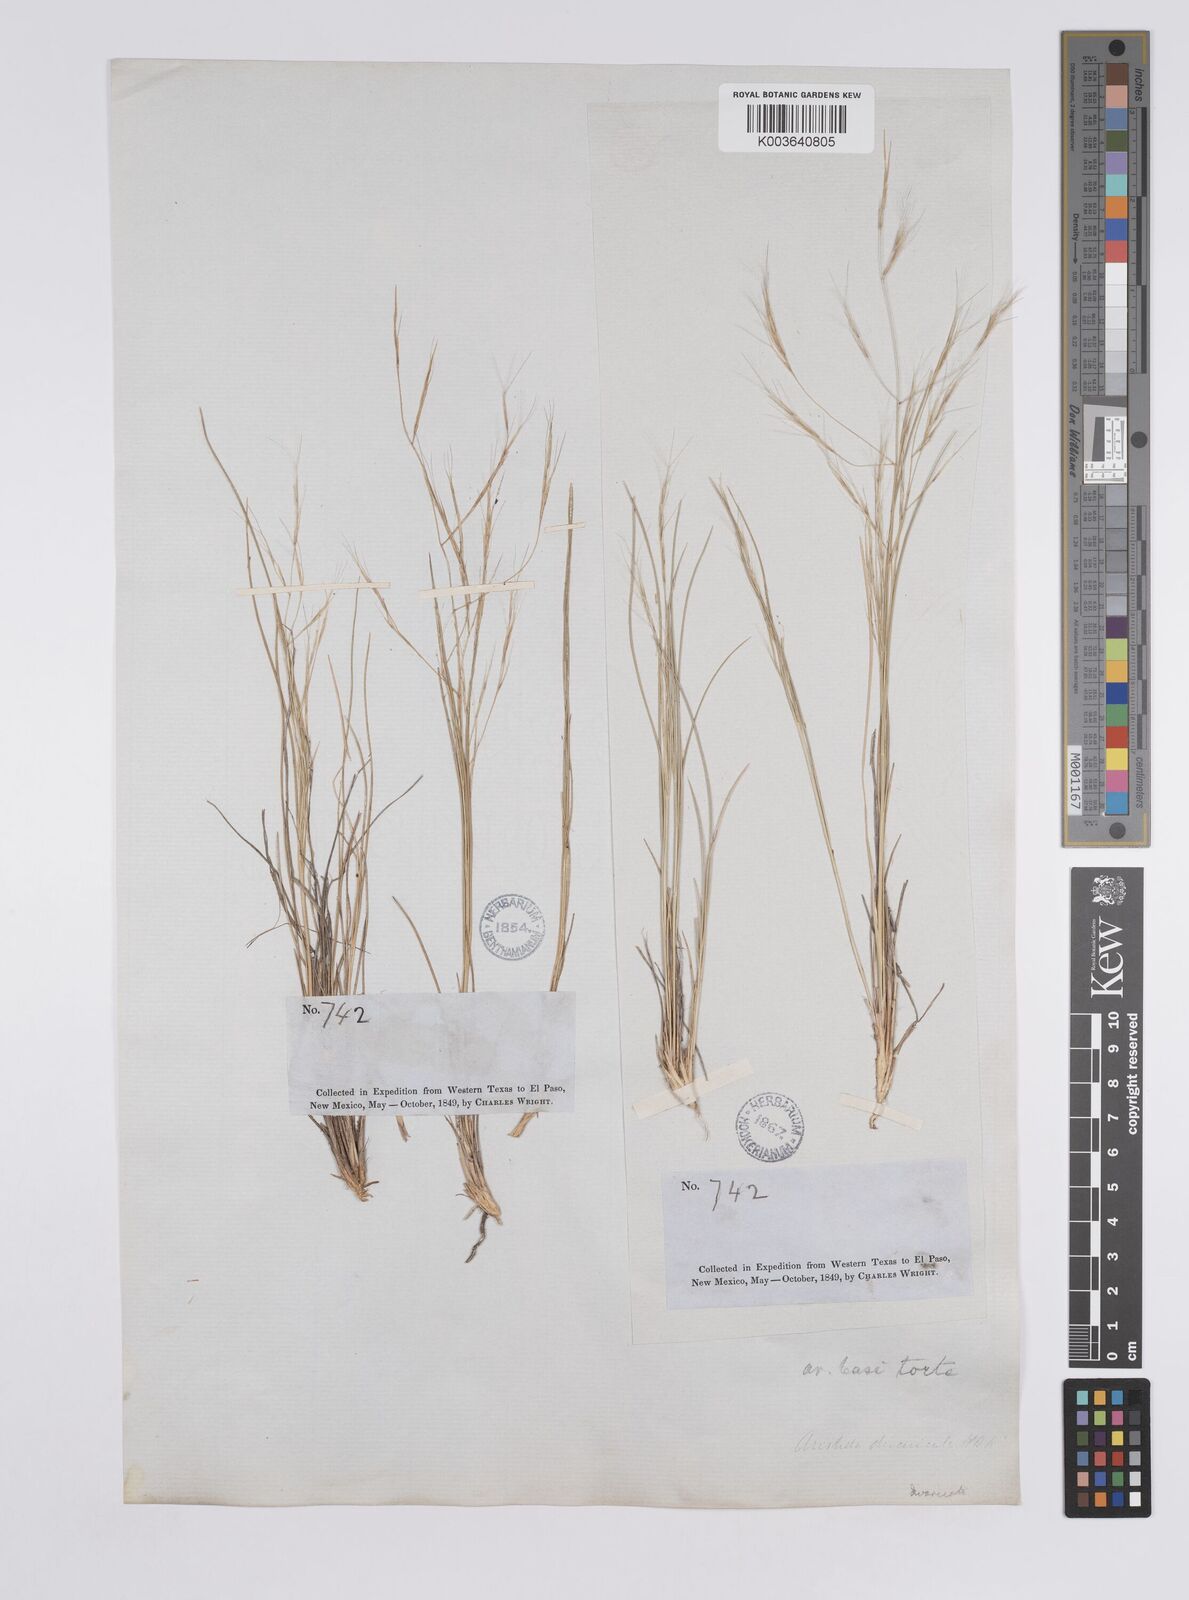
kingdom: Plantae
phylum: Tracheophyta
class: Liliopsida
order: Poales
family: Poaceae
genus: Aristida
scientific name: Aristida laxa
